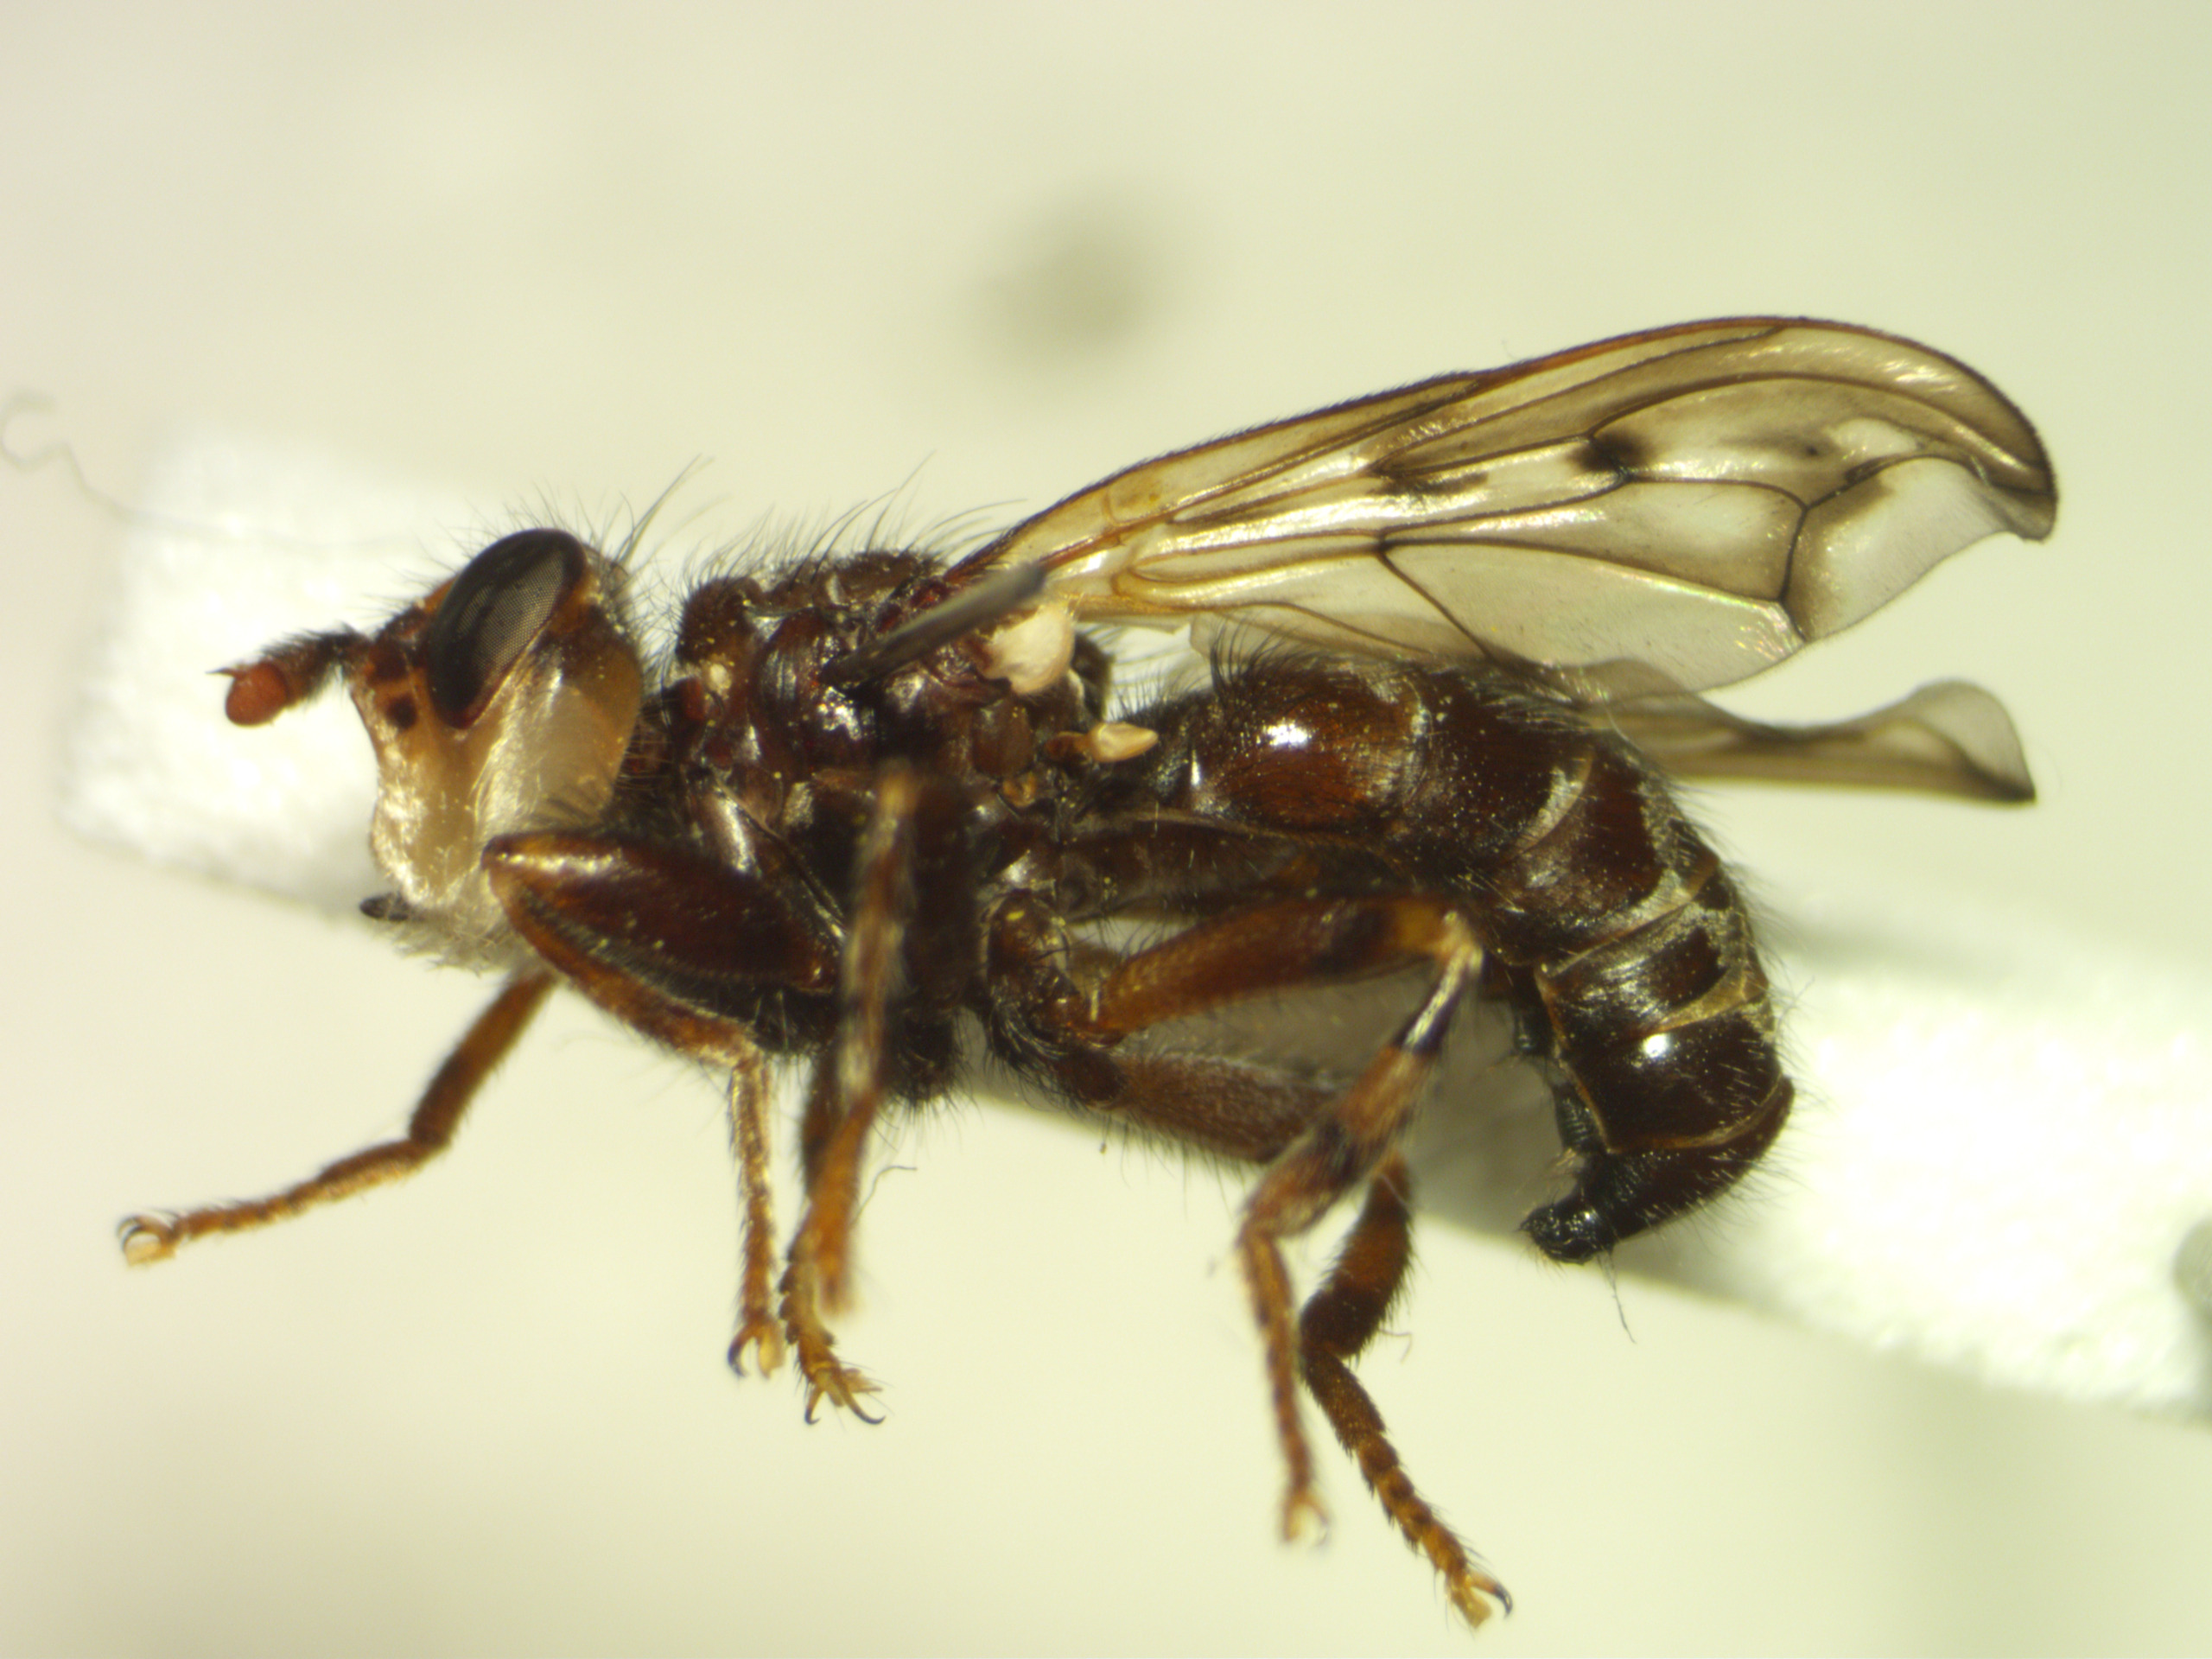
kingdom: Animalia
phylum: Arthropoda
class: Insecta
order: Diptera
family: Conopidae
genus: Myopa
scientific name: Myopa tessellatipennis
